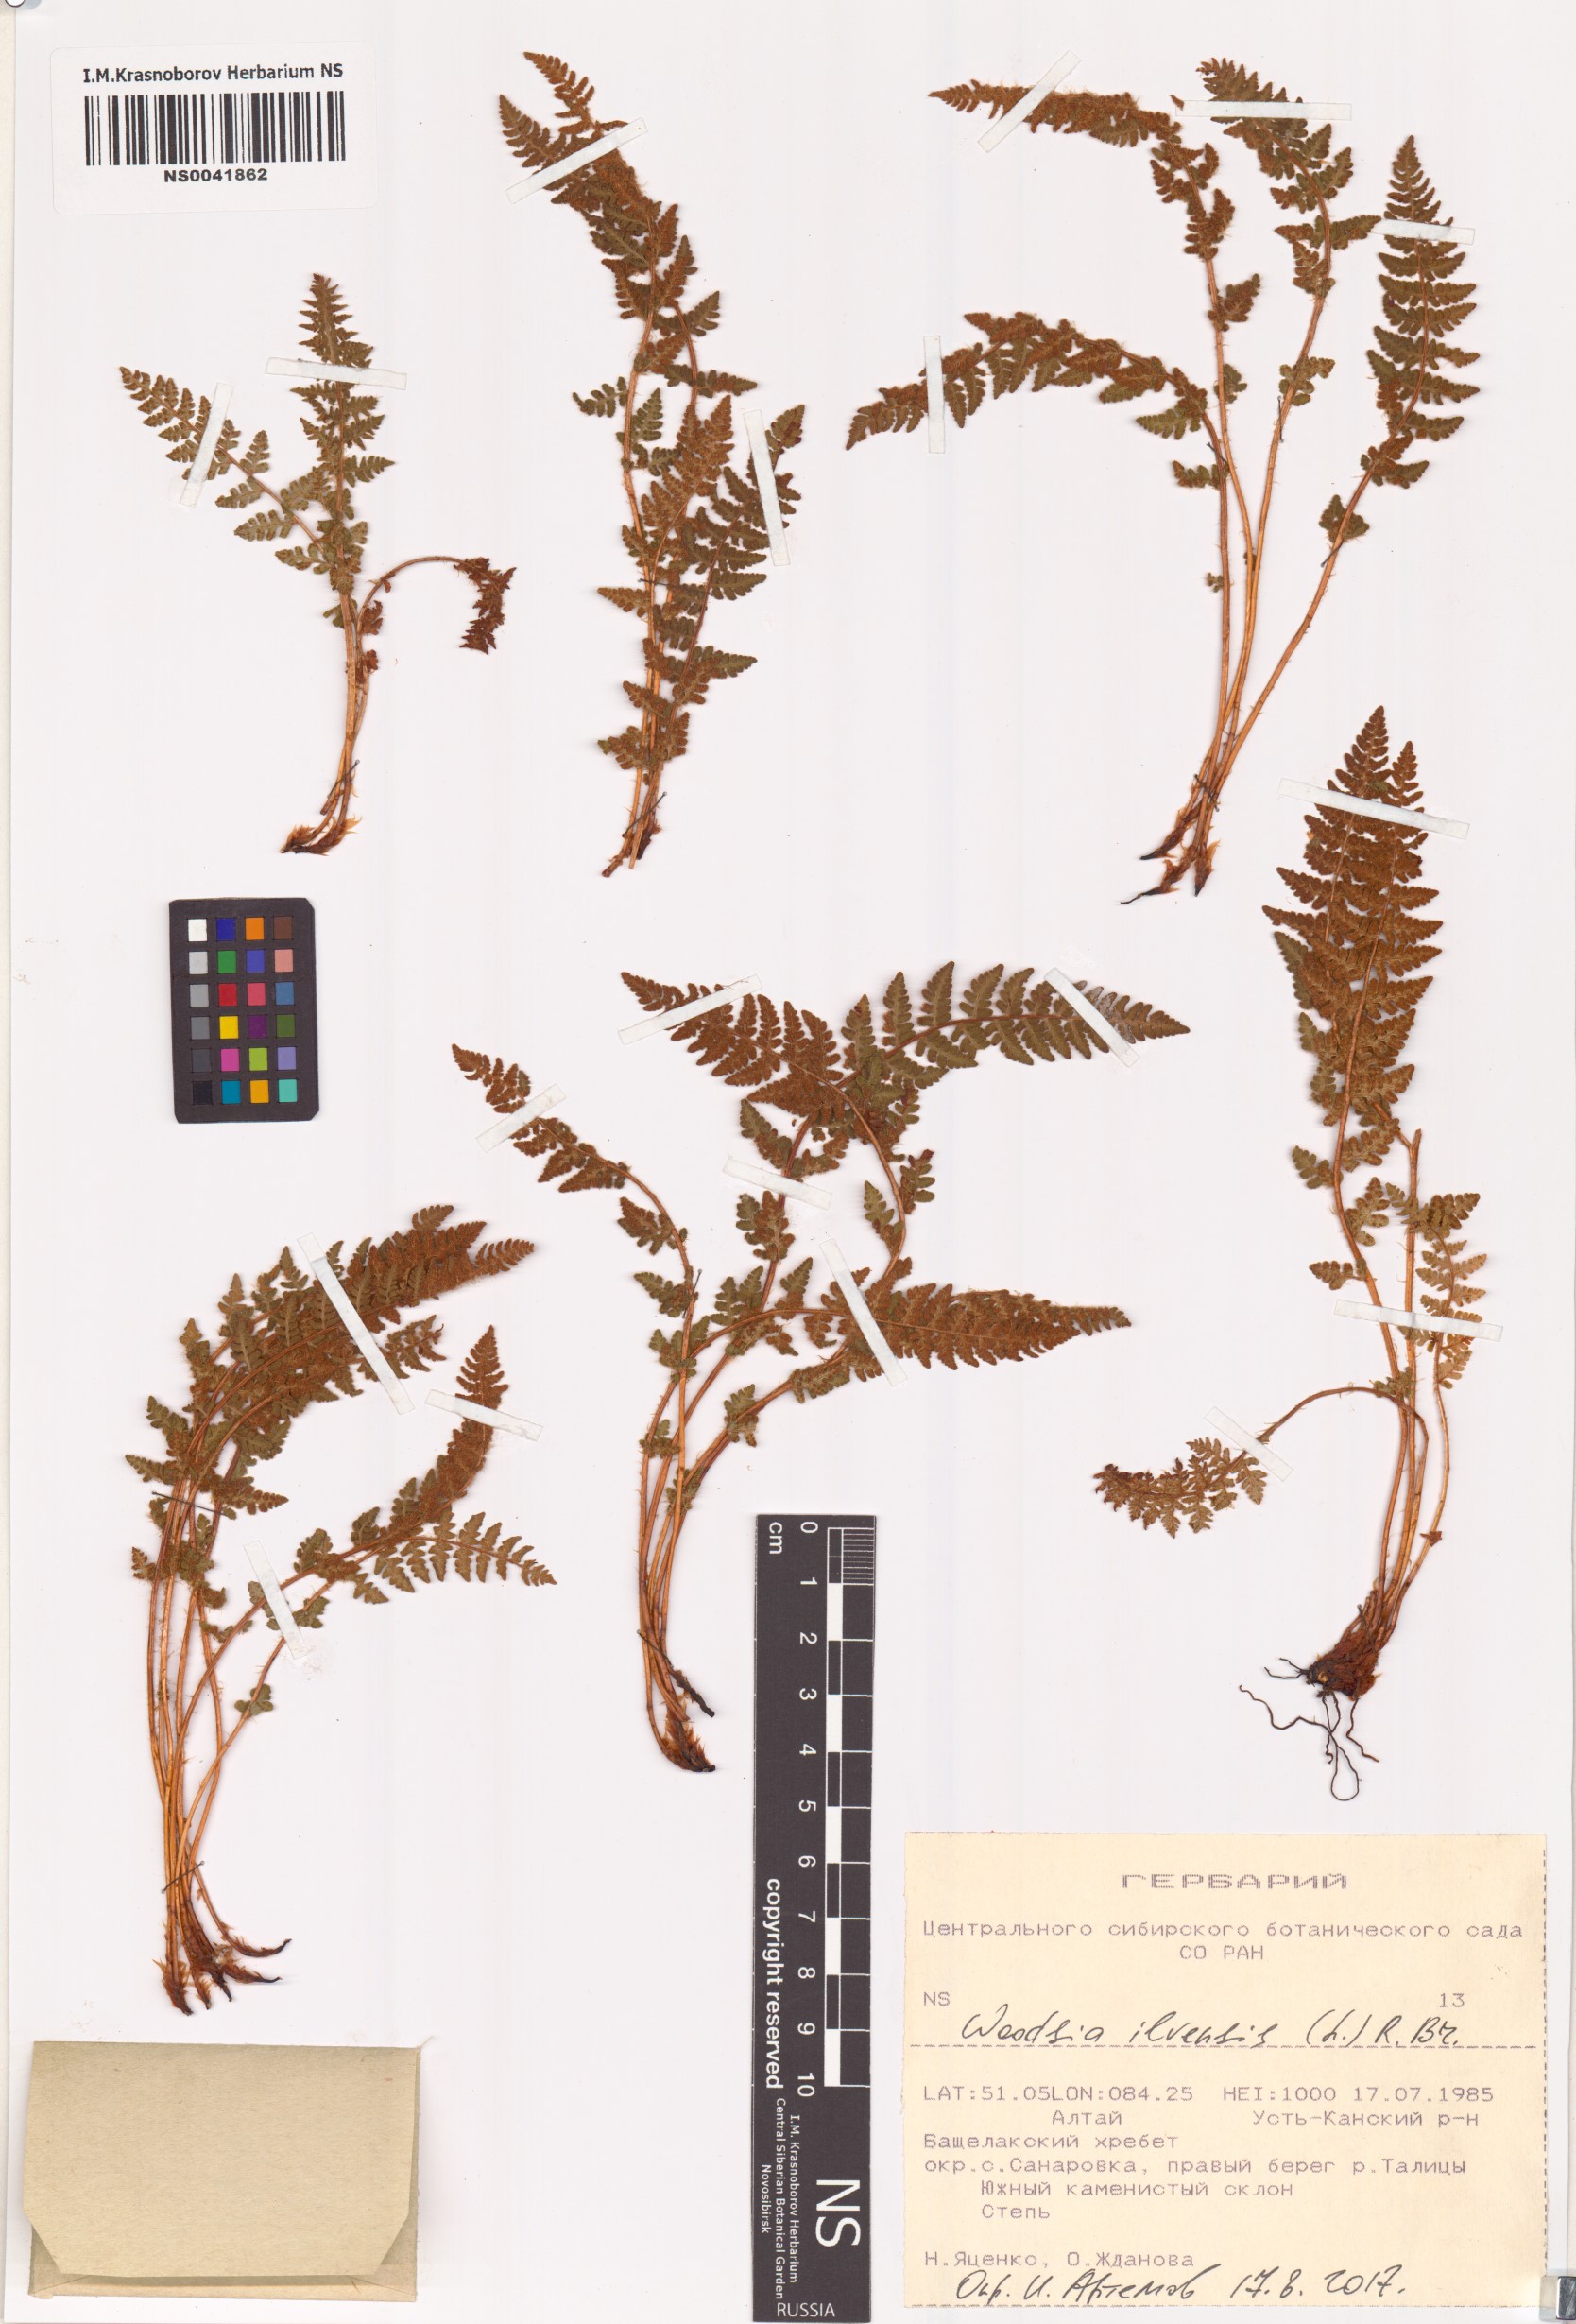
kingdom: Plantae
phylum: Tracheophyta
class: Polypodiopsida
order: Polypodiales
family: Woodsiaceae
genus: Woodsia
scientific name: Woodsia ilvensis
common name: Fragrant woodsia
